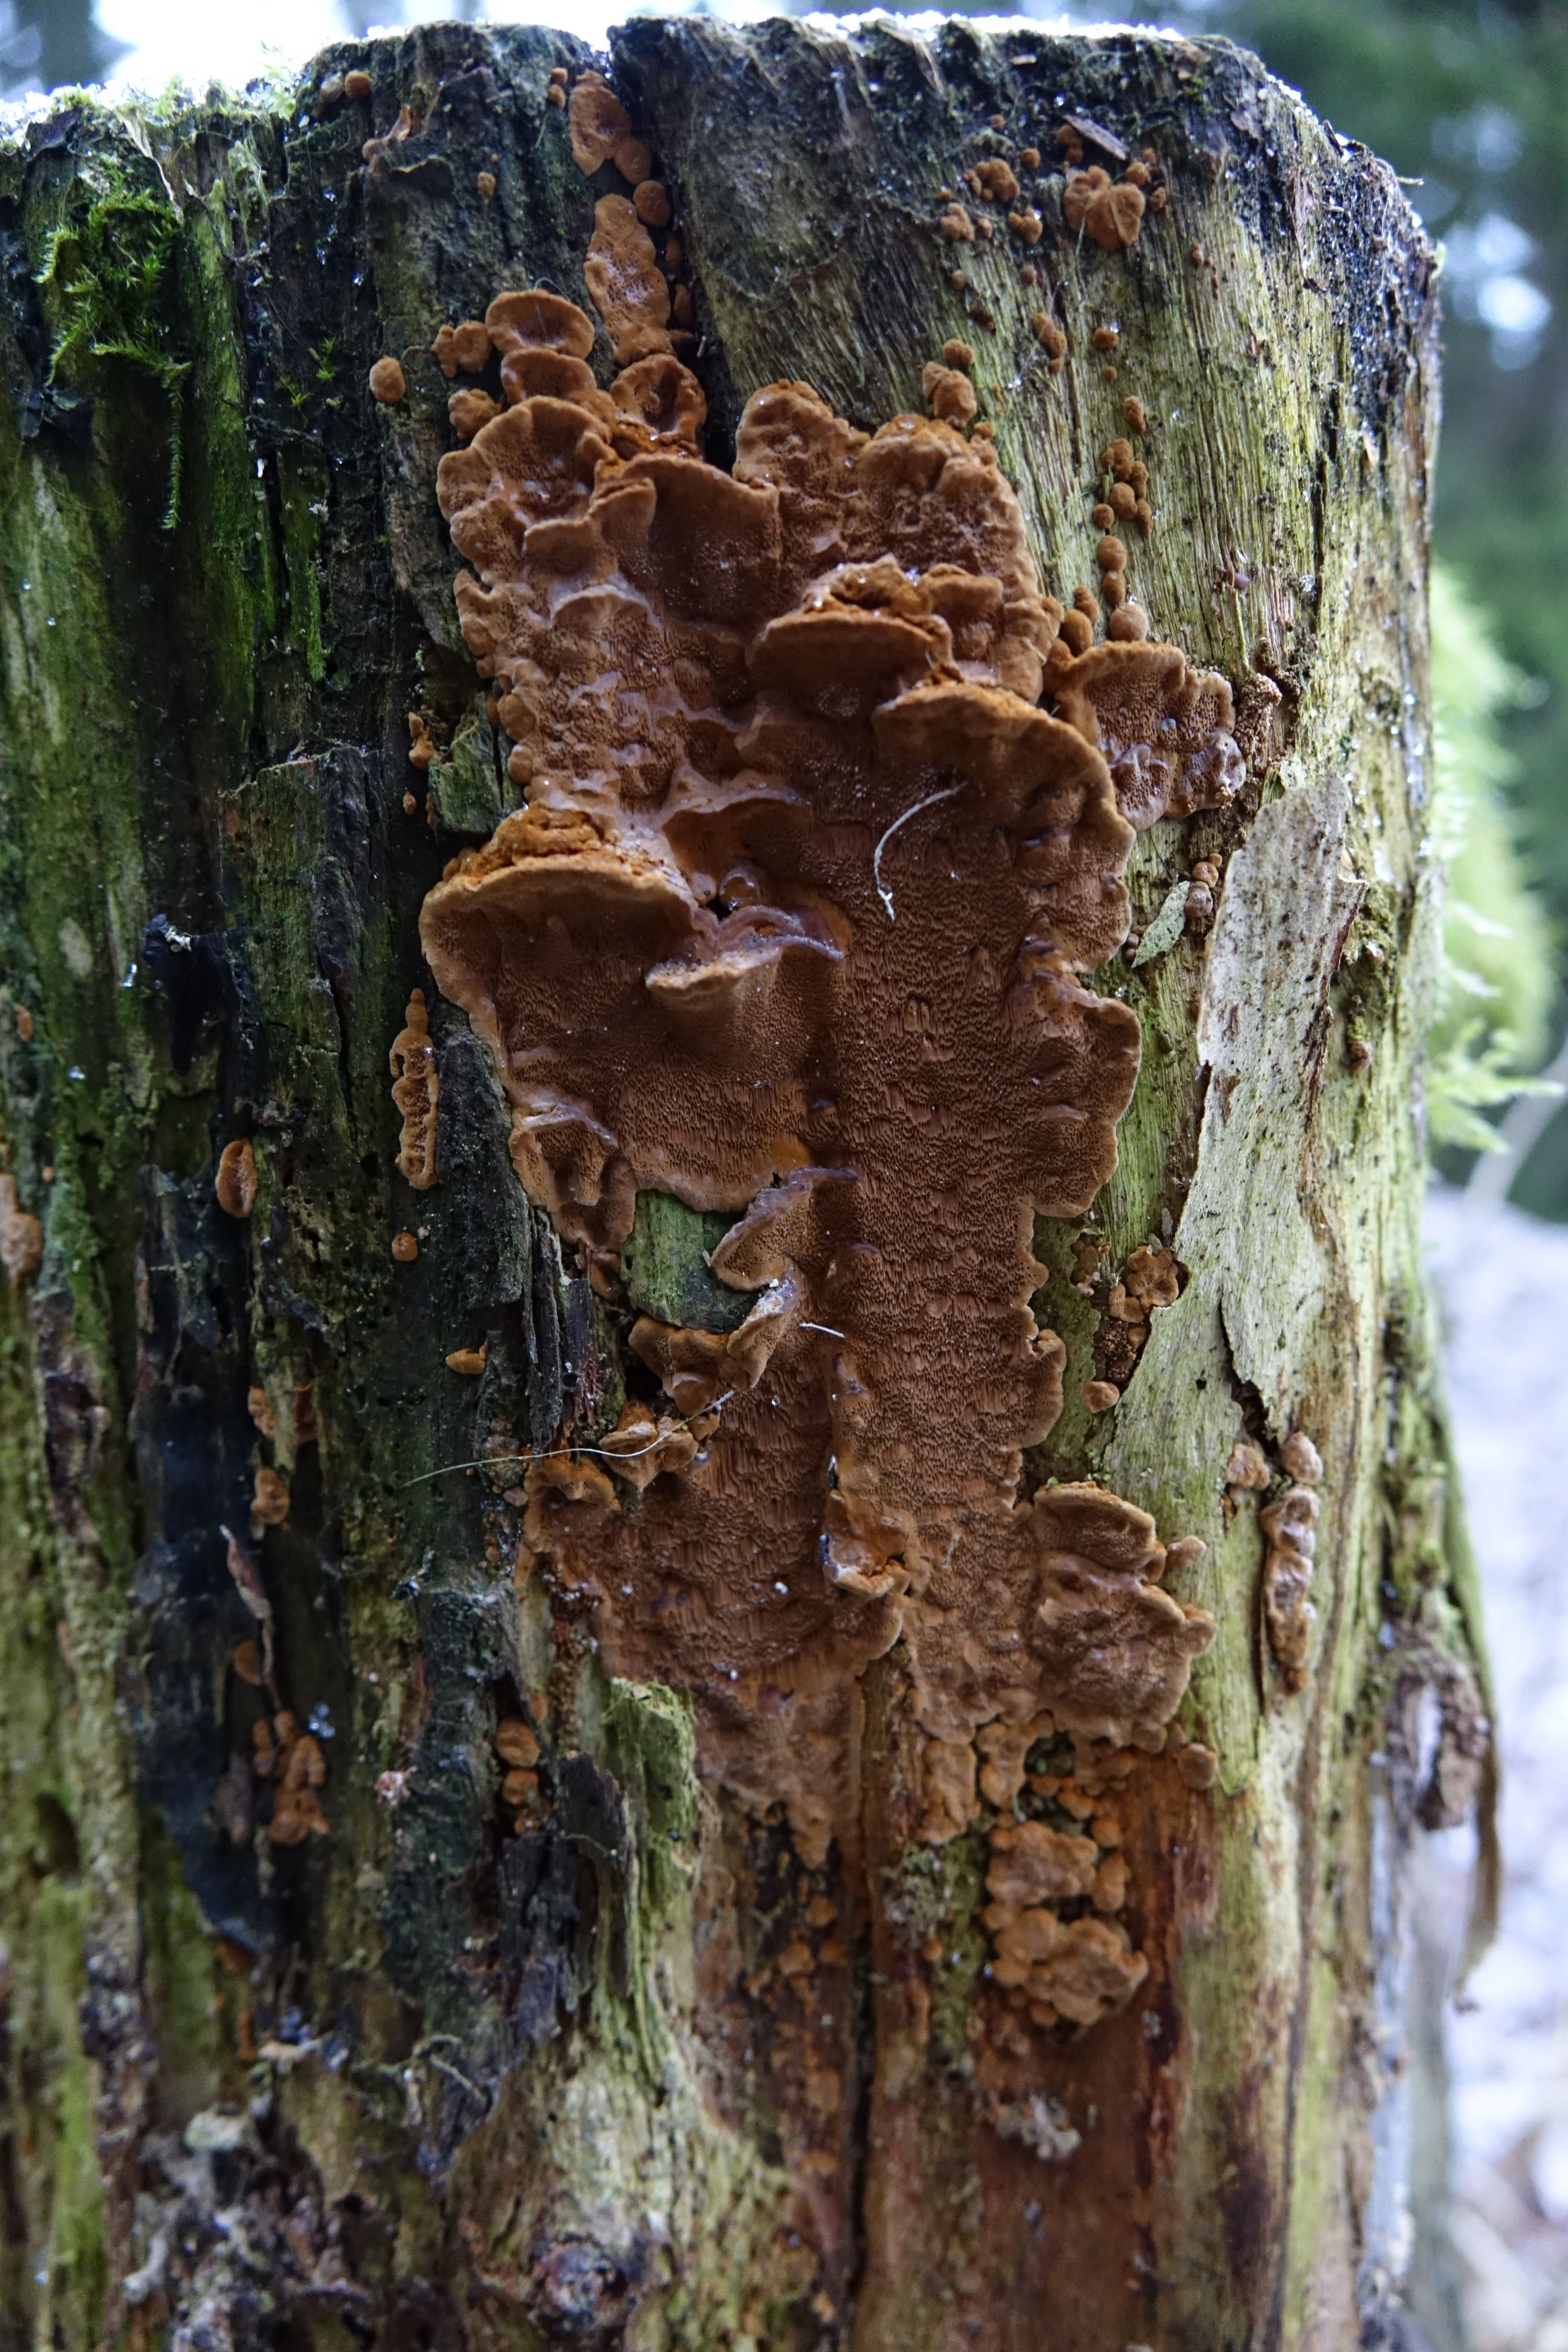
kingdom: Fungi
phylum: Basidiomycota
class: Agaricomycetes
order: Hymenochaetales
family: Hymenochaetaceae
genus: Phellinopsis
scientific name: Phellinopsis conchata
